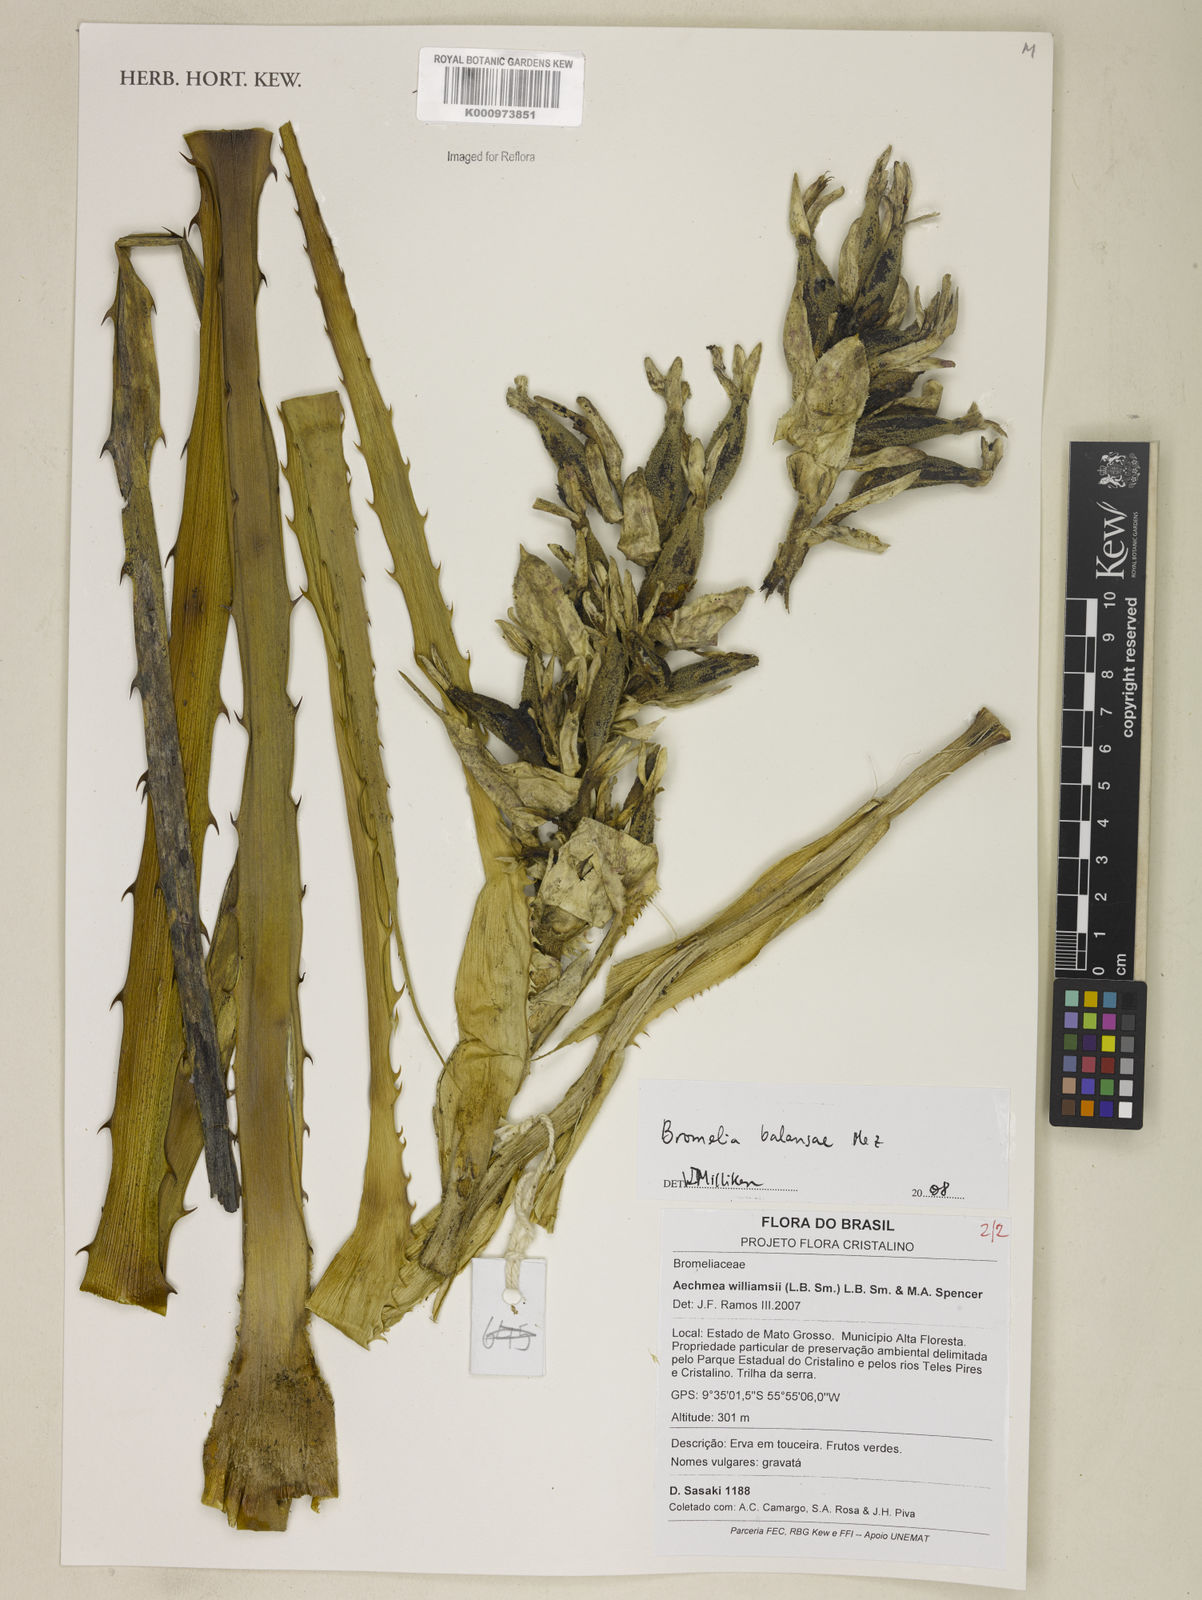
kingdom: Plantae
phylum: Tracheophyta
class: Liliopsida
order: Poales
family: Bromeliaceae
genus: Bromelia
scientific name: Bromelia balansae
